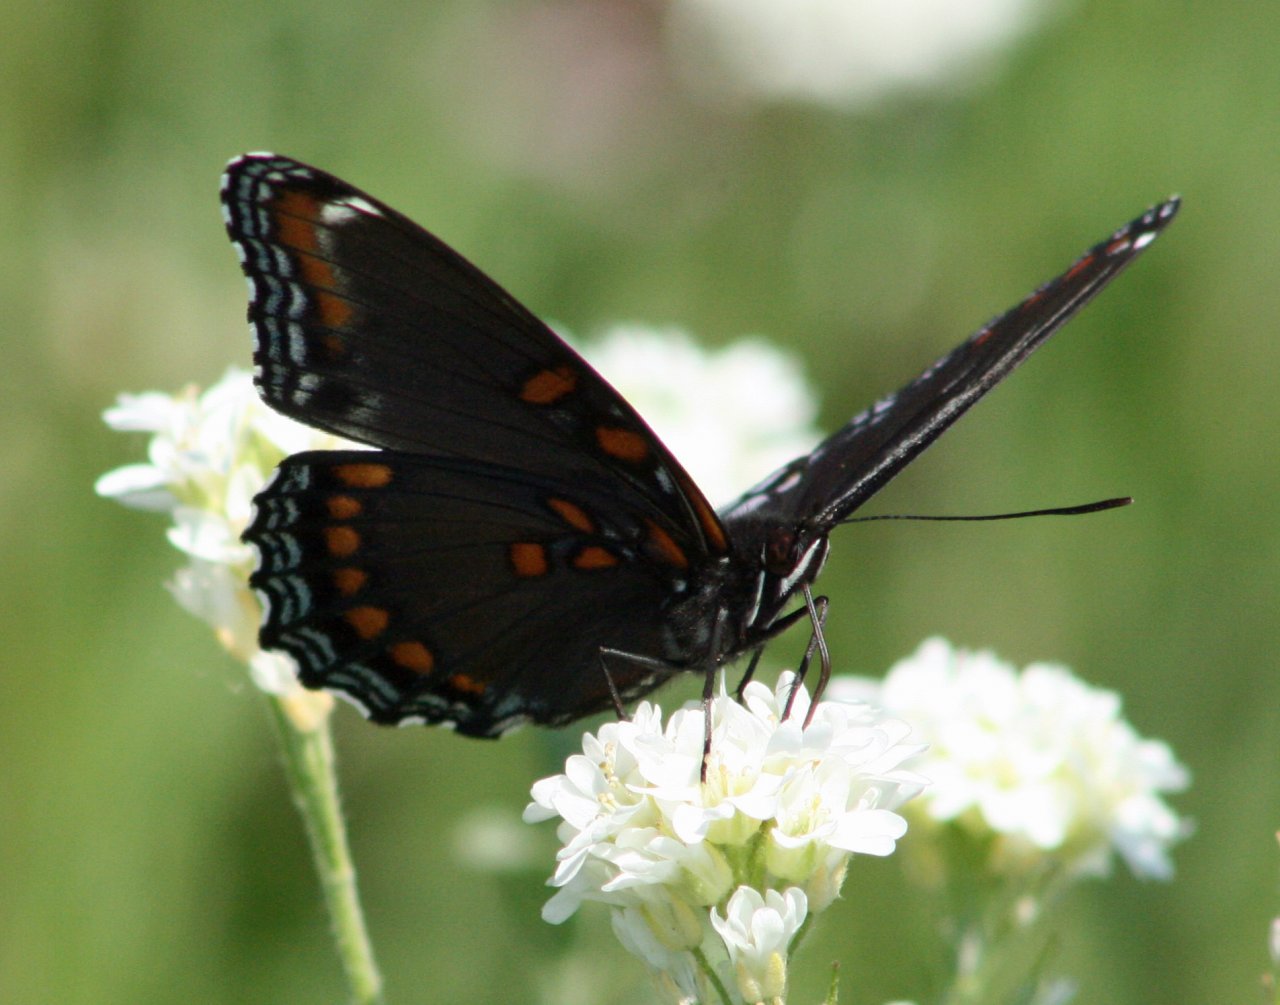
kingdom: Animalia
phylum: Arthropoda
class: Insecta
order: Lepidoptera
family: Nymphalidae
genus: Limenitis
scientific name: Limenitis astyanax
